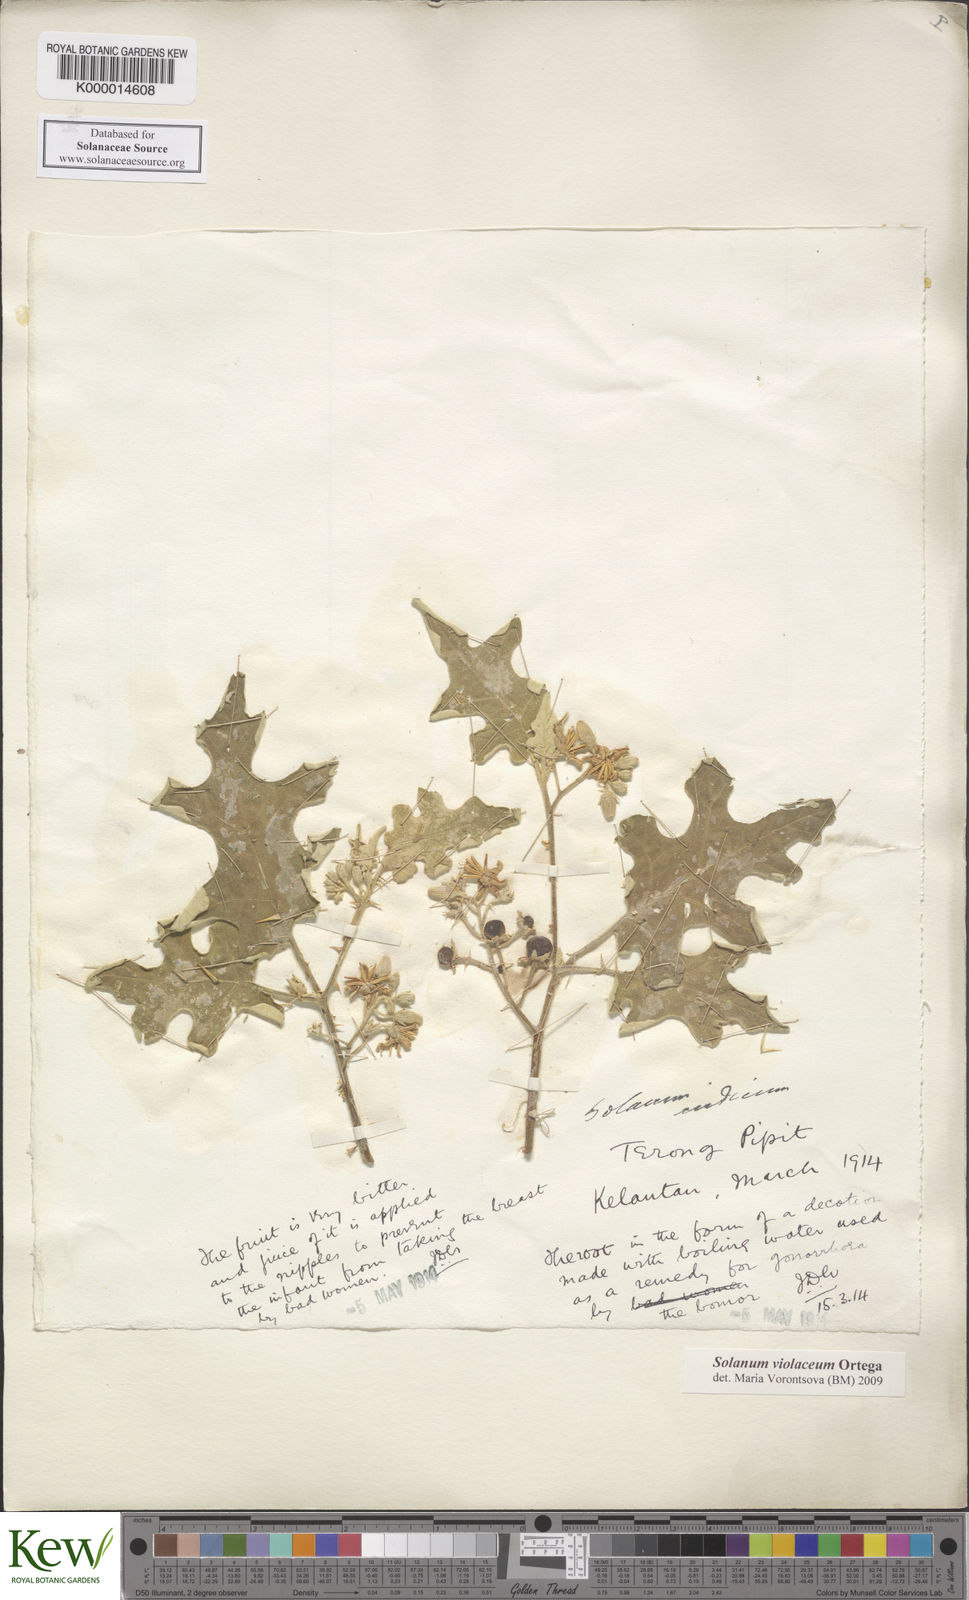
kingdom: Plantae
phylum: Tracheophyta
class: Magnoliopsida
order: Solanales
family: Solanaceae
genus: Solanum
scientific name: Solanum violaceum
